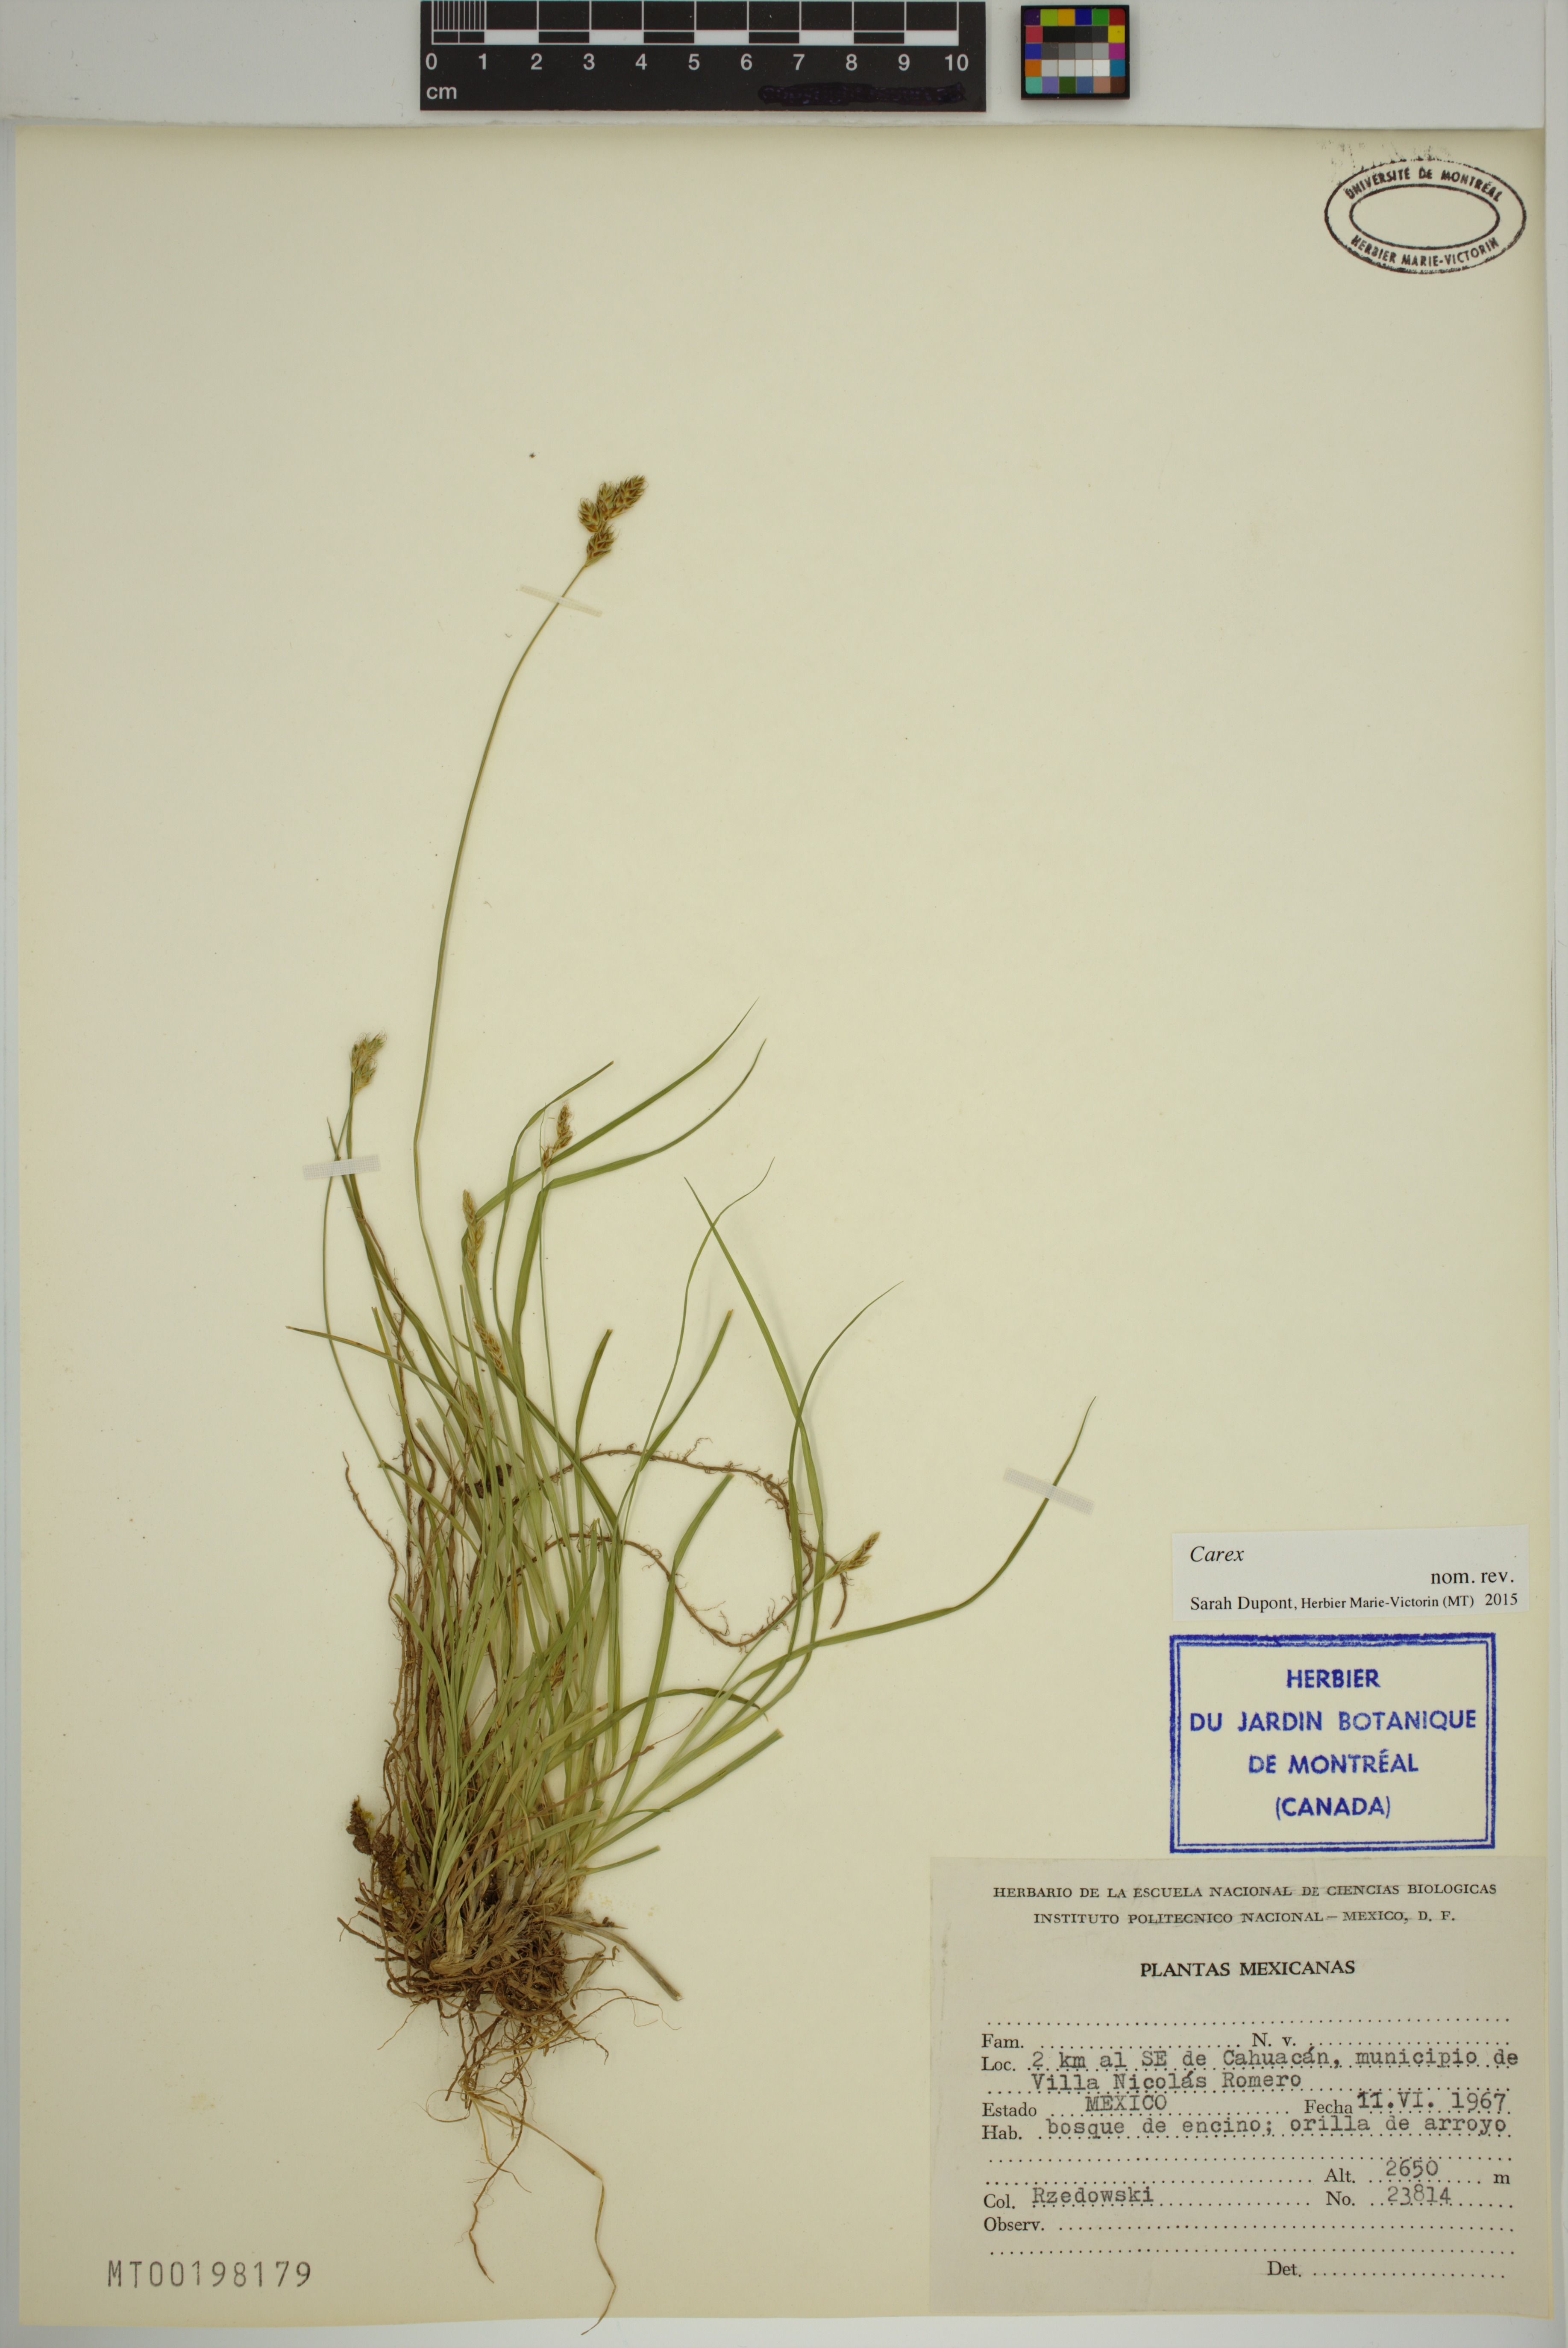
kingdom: Plantae
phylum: Tracheophyta
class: Liliopsida
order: Poales
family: Cyperaceae
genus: Carex
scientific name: Carex
